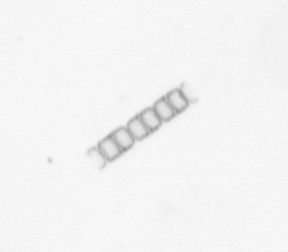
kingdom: Chromista
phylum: Ochrophyta
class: Bacillariophyceae
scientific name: Bacillariophyceae
